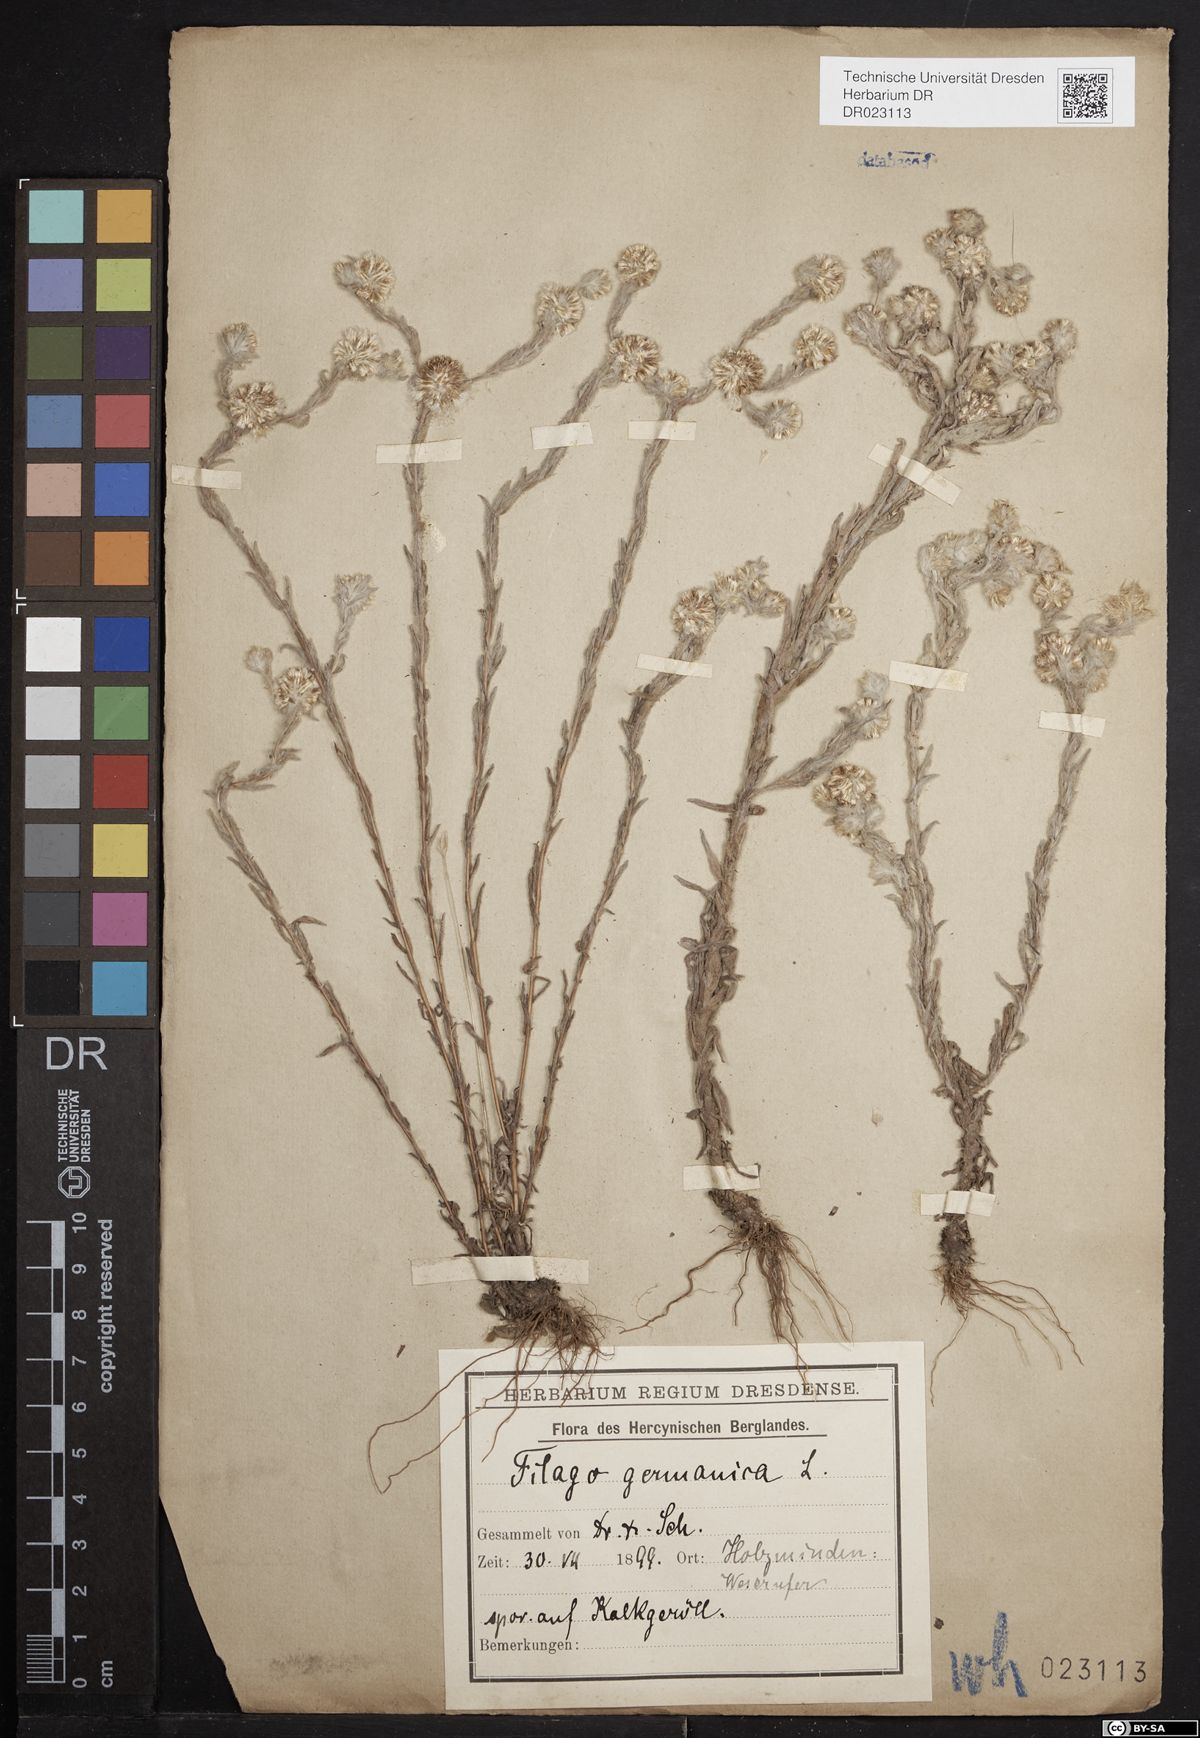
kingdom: Plantae
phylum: Tracheophyta
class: Magnoliopsida
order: Asterales
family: Asteraceae
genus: Filago
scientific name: Filago germanica
